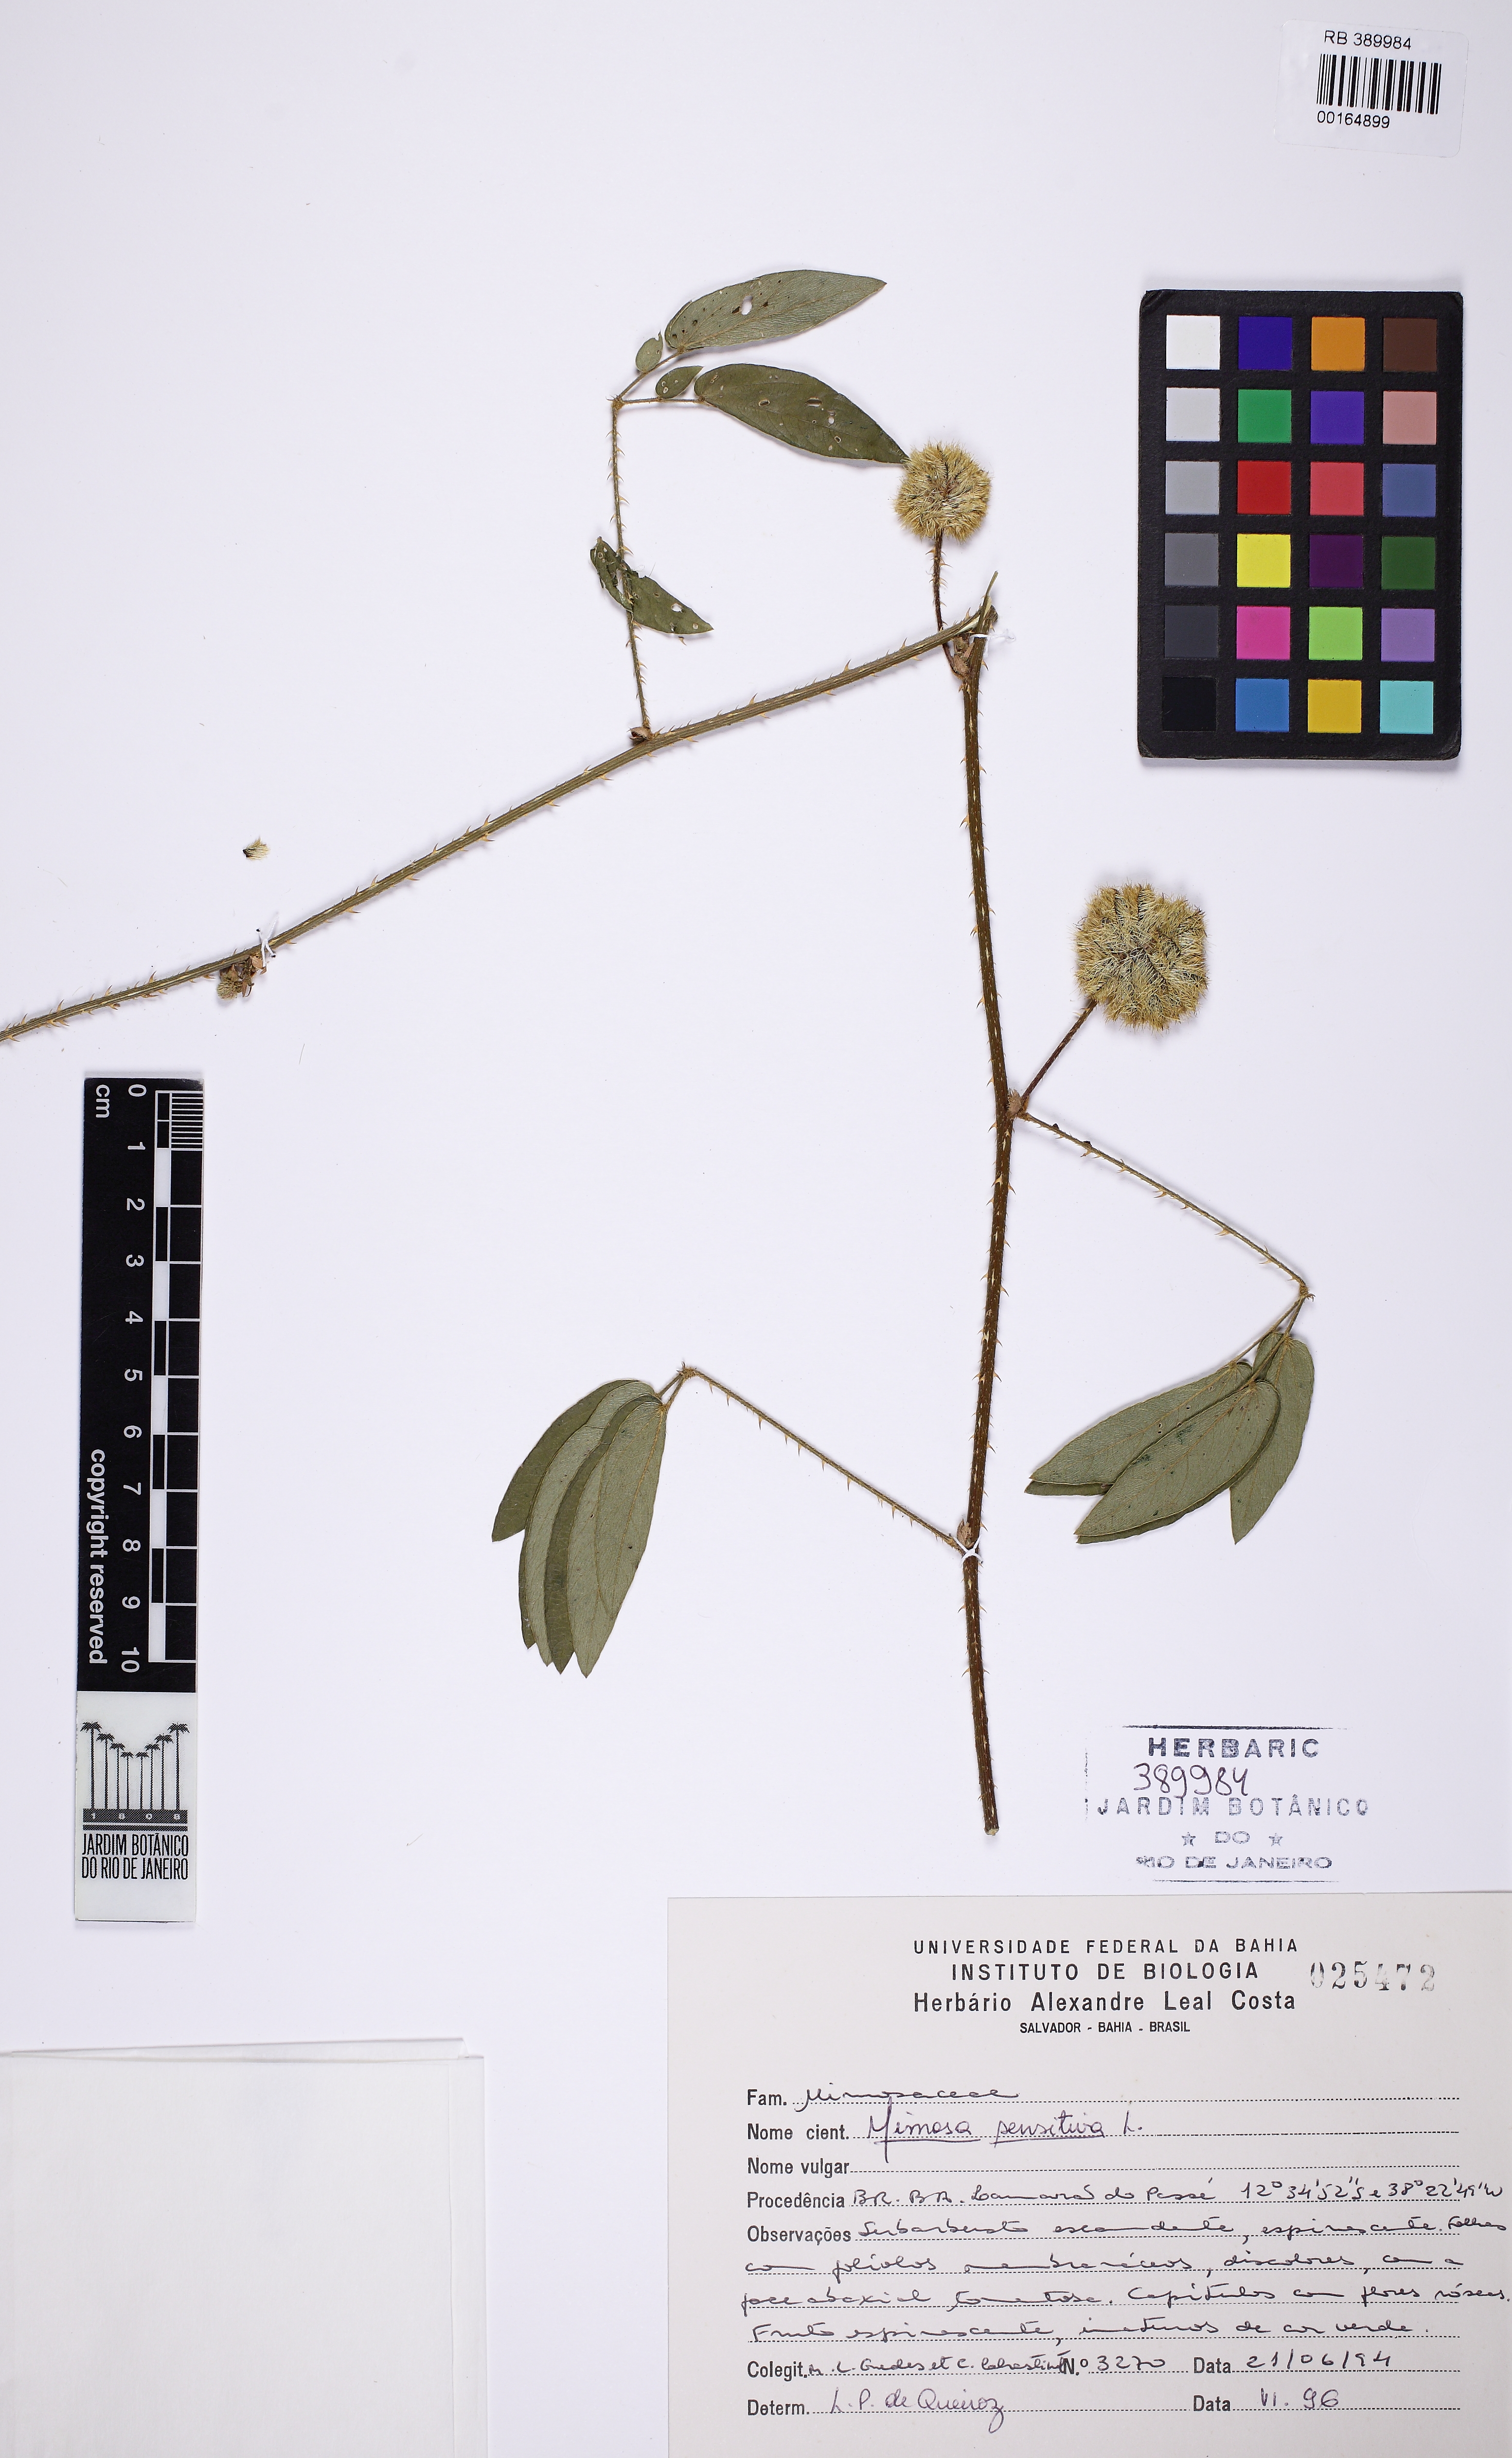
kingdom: Plantae
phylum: Tracheophyta
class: Magnoliopsida
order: Fabales
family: Fabaceae
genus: Mimosa
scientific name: Mimosa sensitiva
